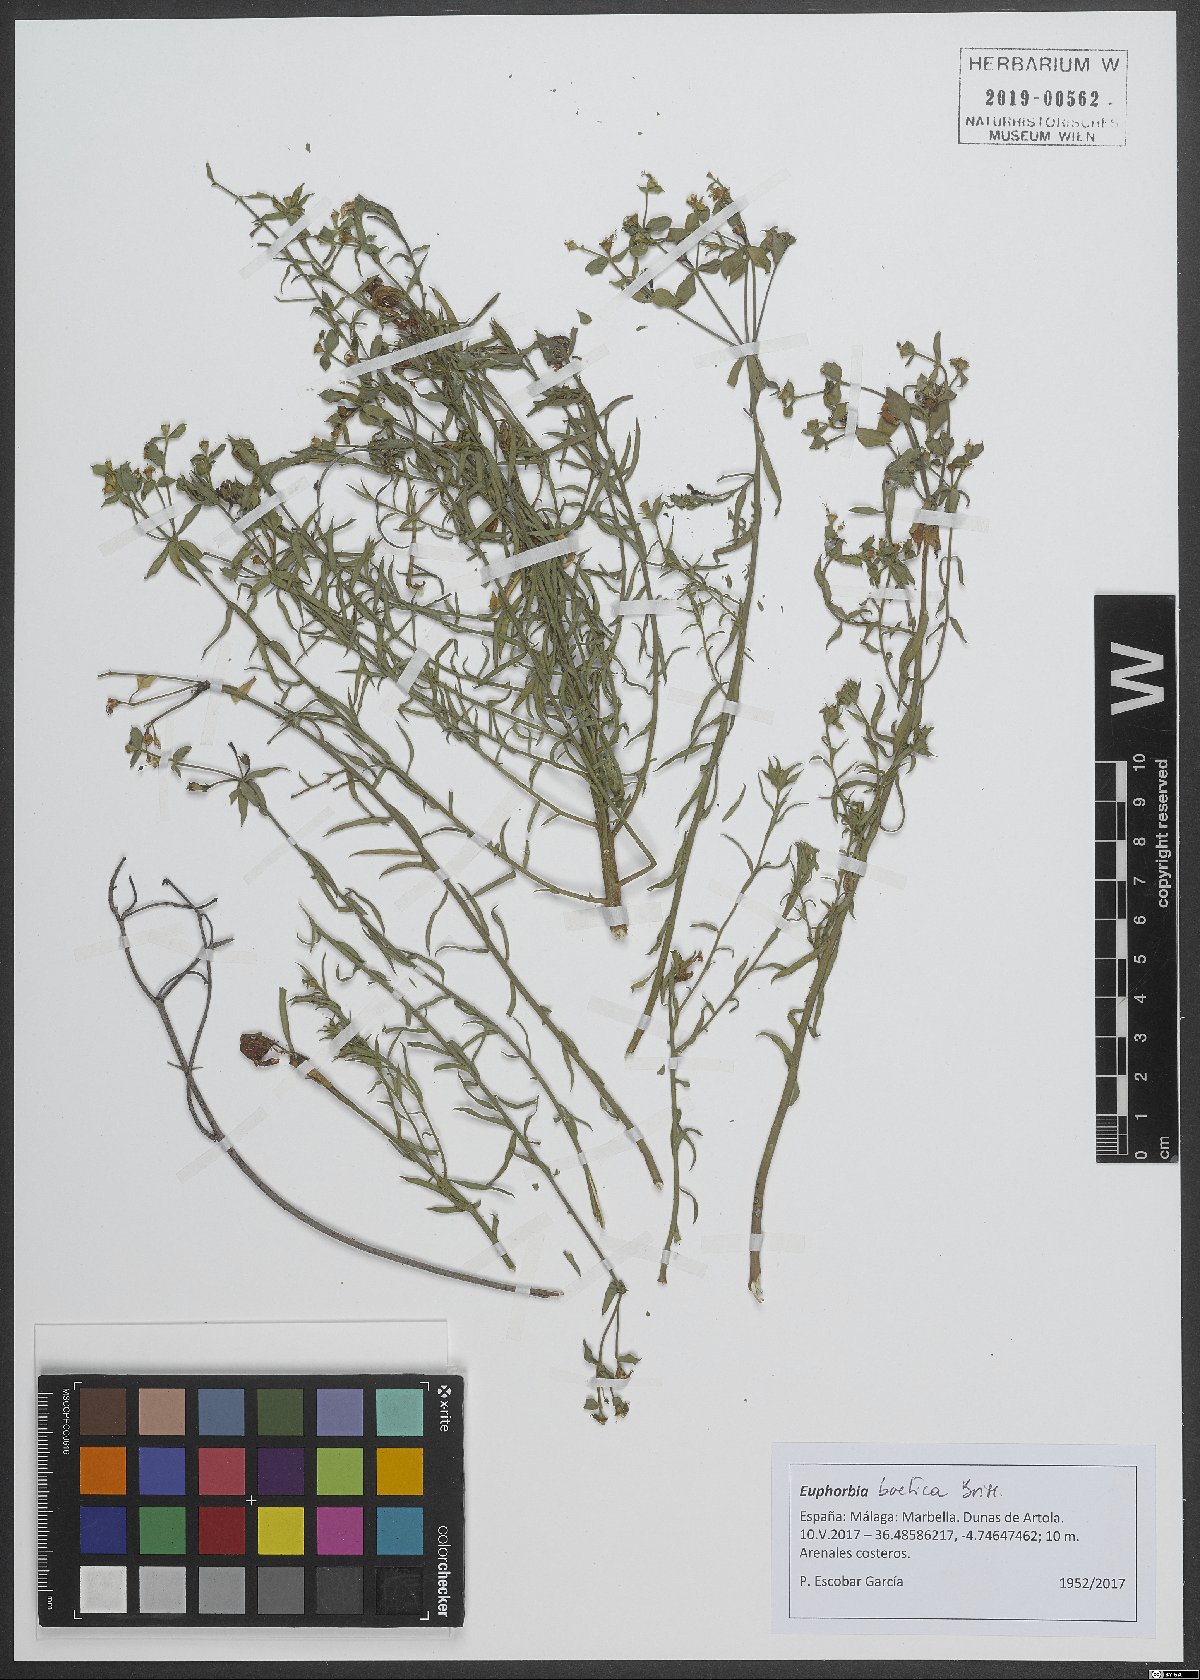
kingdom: Plantae
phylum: Tracheophyta
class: Magnoliopsida
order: Malpighiales
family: Euphorbiaceae
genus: Euphorbia
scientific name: Euphorbia boetica
